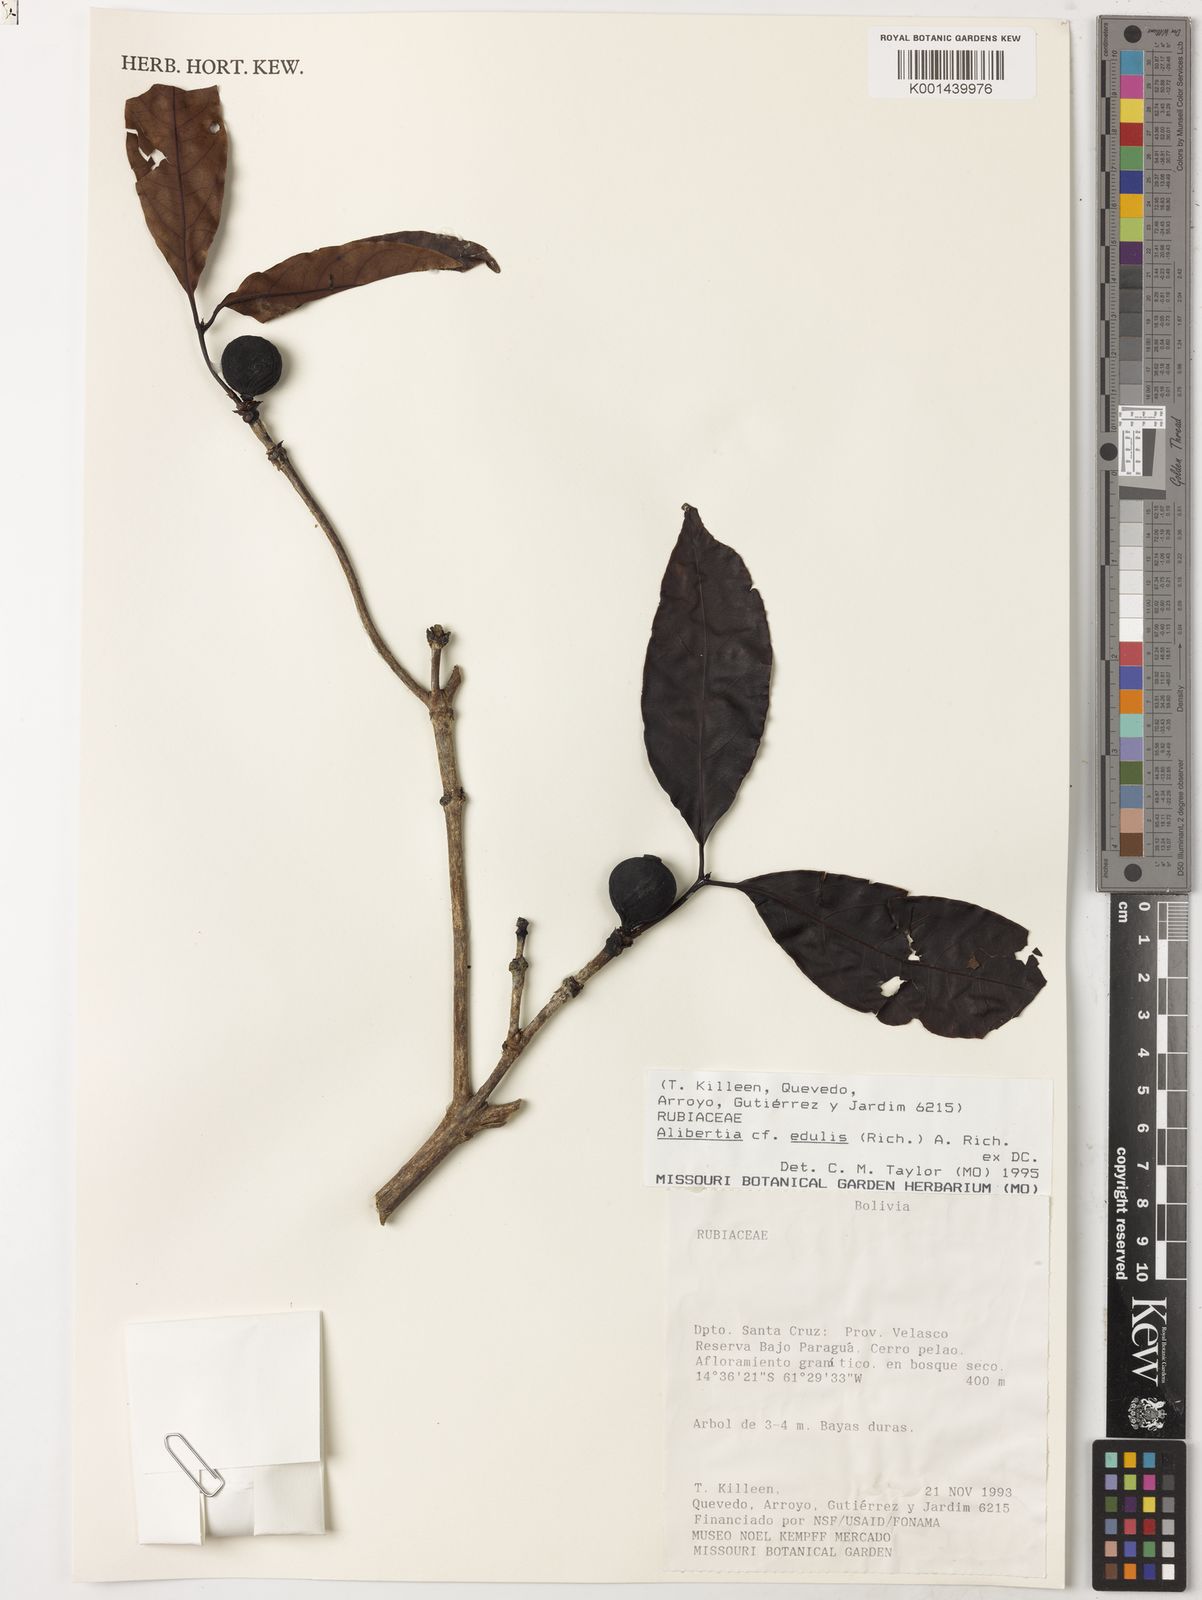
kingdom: Plantae
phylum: Tracheophyta
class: Magnoliopsida
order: Gentianales
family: Rubiaceae
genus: Alibertia
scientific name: Alibertia edulis
